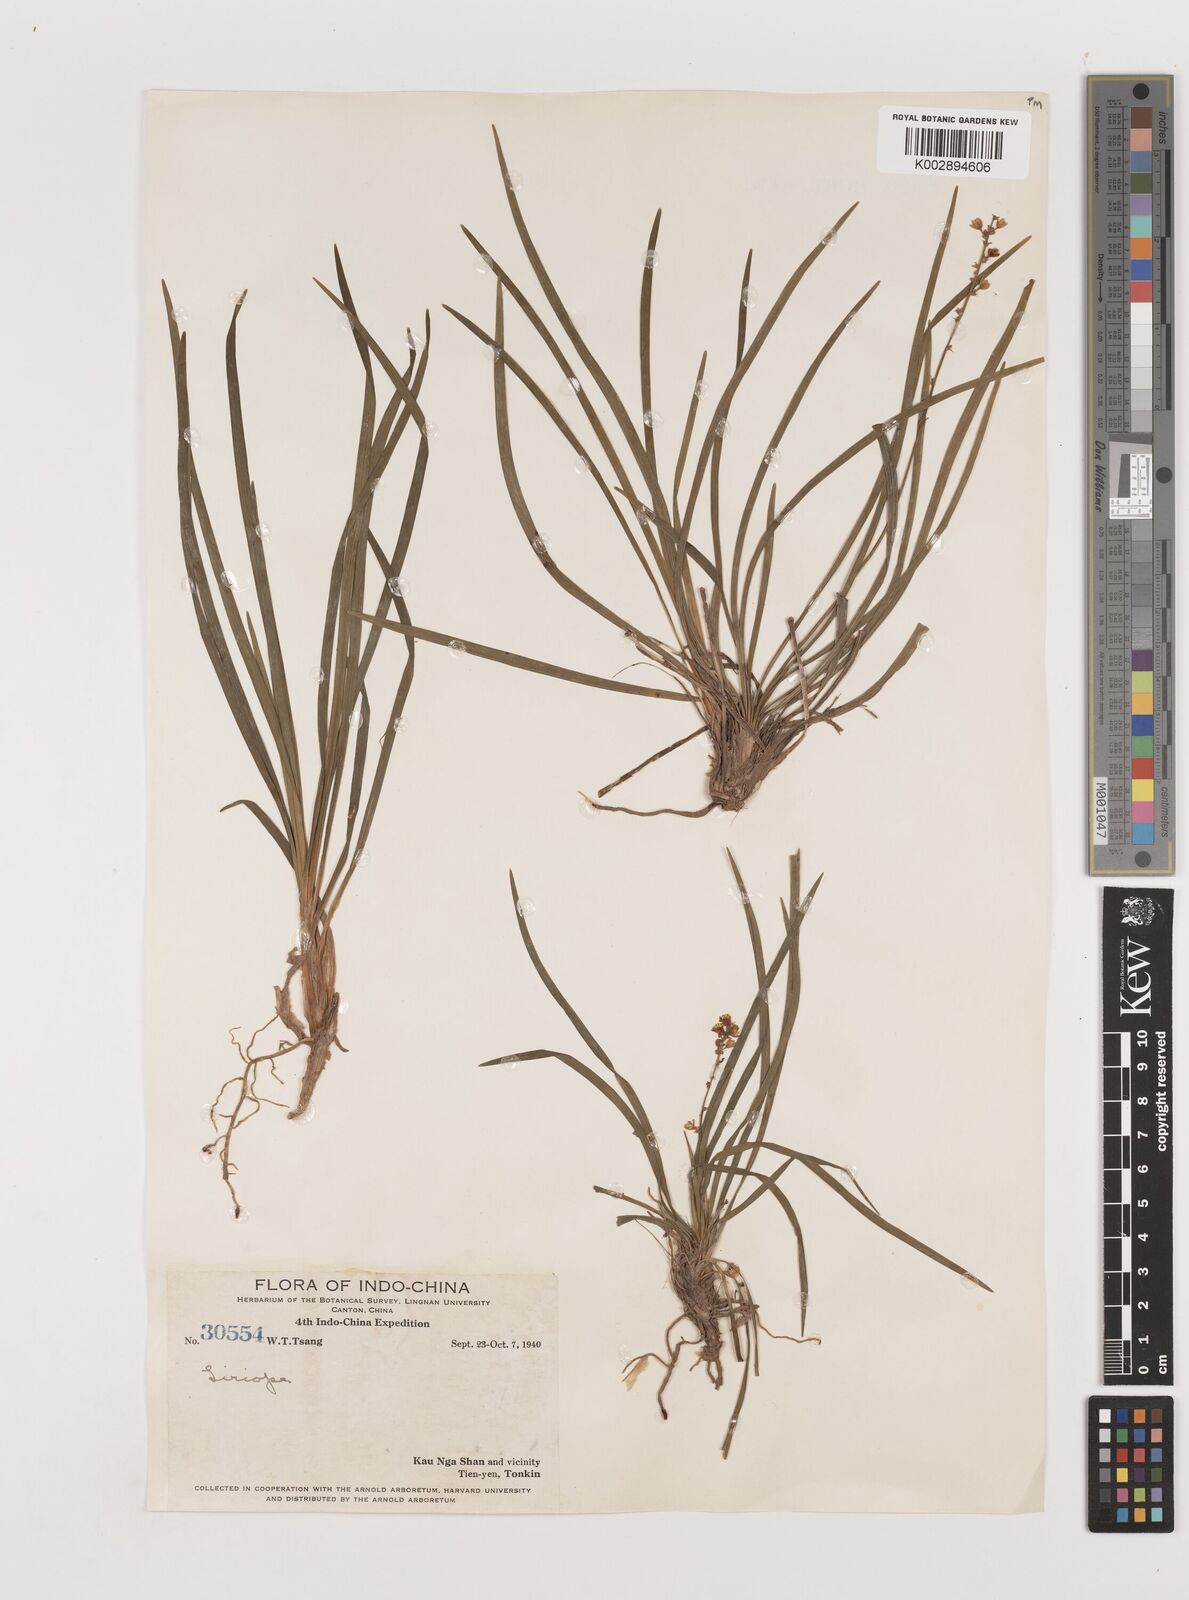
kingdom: Plantae
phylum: Tracheophyta
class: Liliopsida
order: Asparagales
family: Asparagaceae
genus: Liriope
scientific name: Liriope
